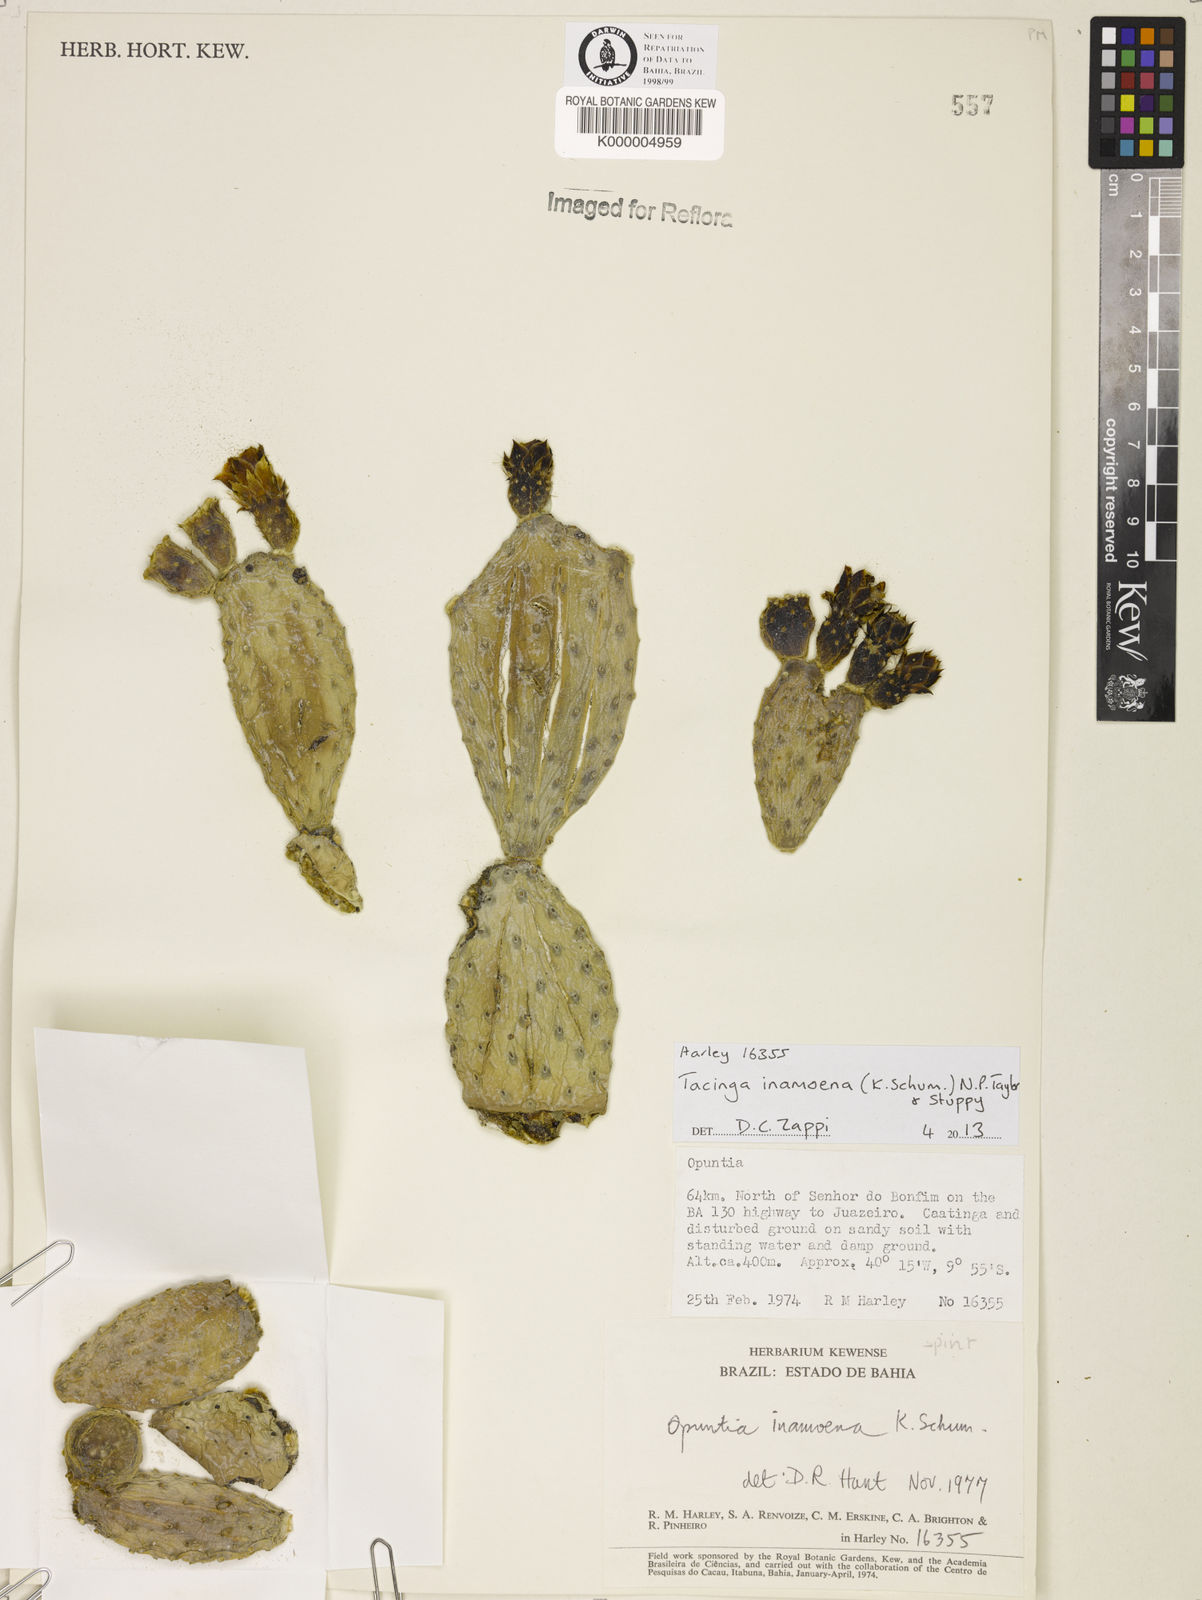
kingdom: Plantae
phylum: Tracheophyta
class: Magnoliopsida
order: Caryophyllales
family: Cactaceae
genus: Tacinga
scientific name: Tacinga inamoena
